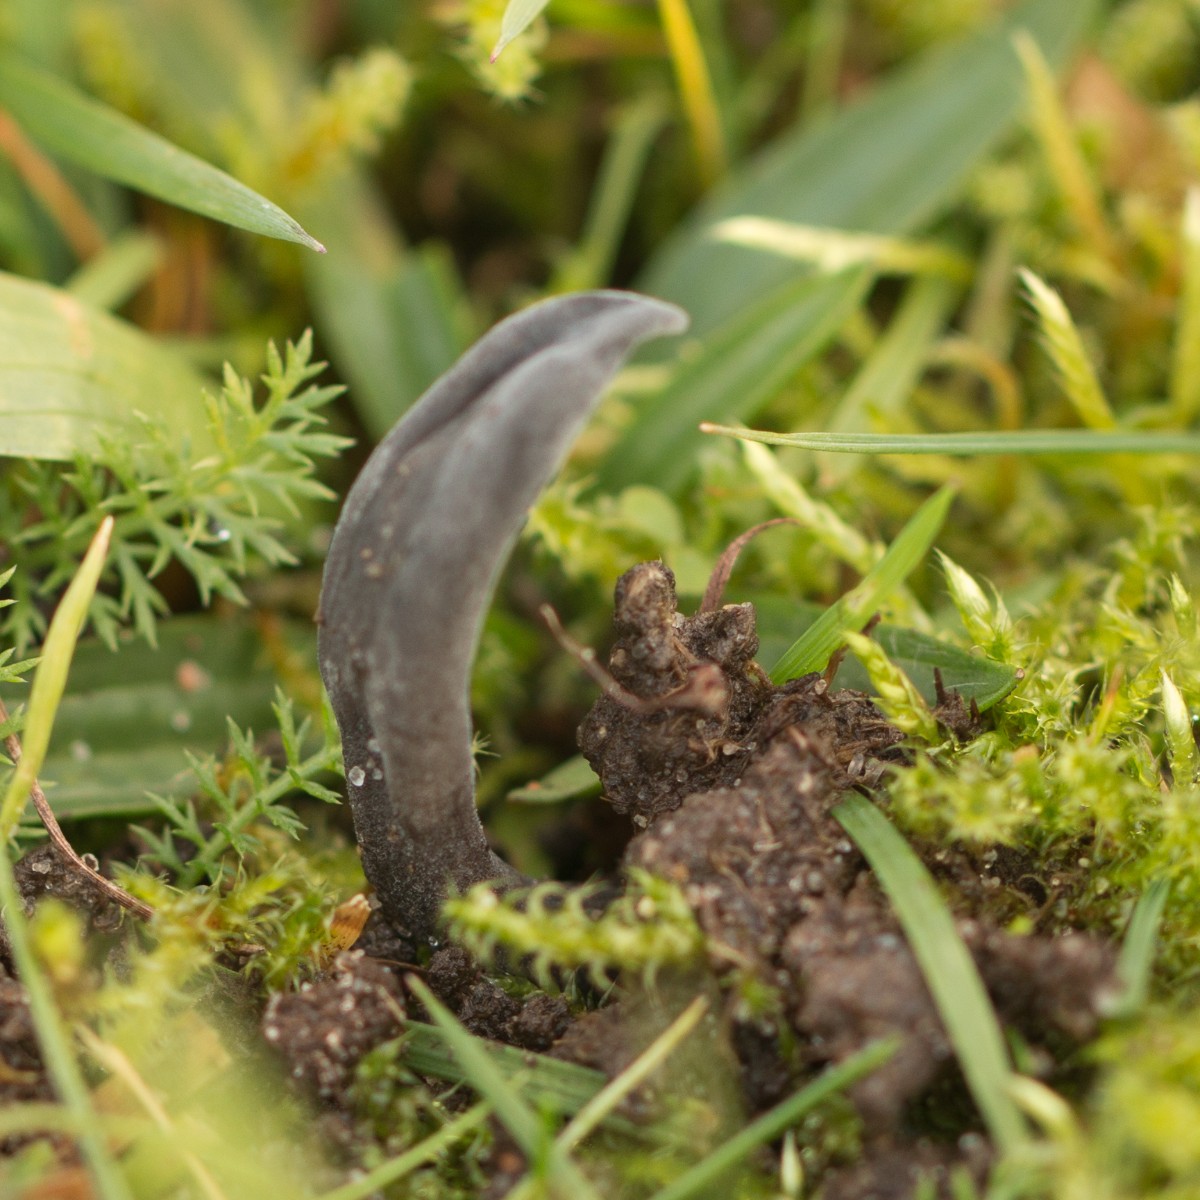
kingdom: Fungi
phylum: Ascomycota
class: Geoglossomycetes
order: Geoglossales
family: Geoglossaceae
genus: Geoglossum
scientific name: Geoglossum
